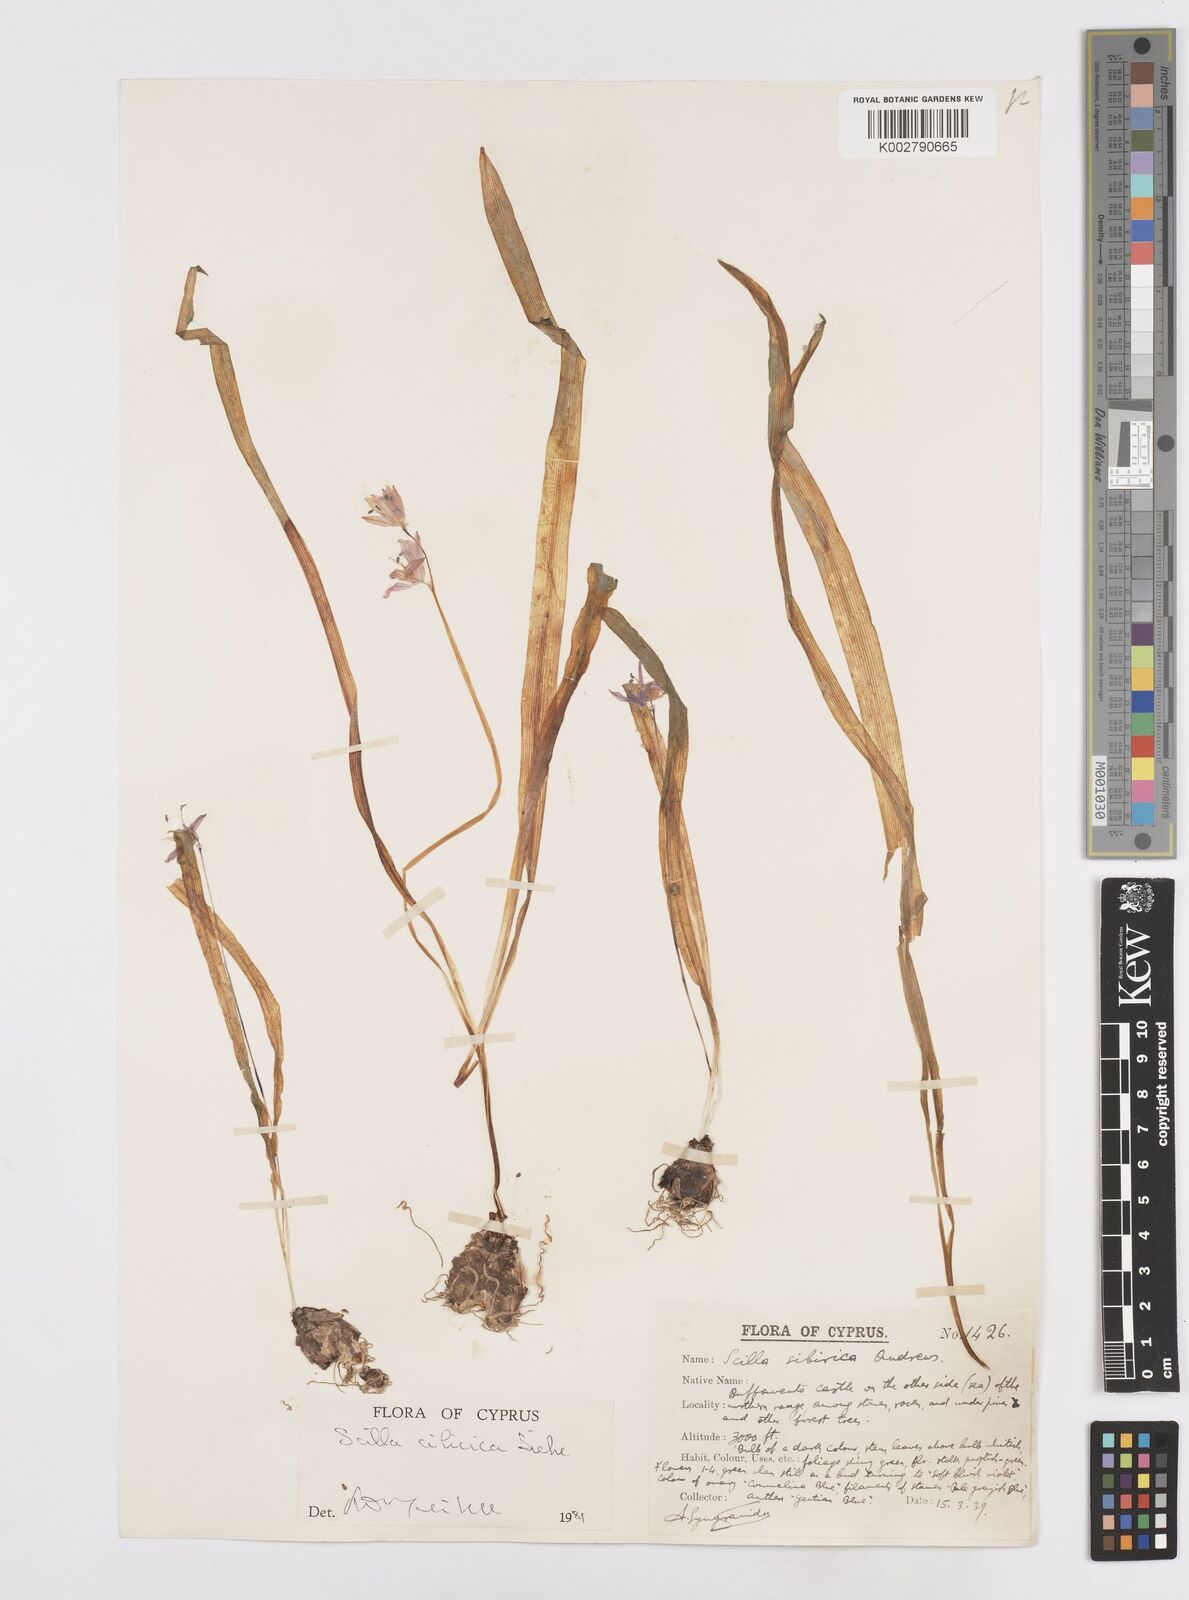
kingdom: Plantae
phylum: Tracheophyta
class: Liliopsida
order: Asparagales
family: Asparagaceae
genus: Scilla
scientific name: Scilla siberica
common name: Siberian squill
